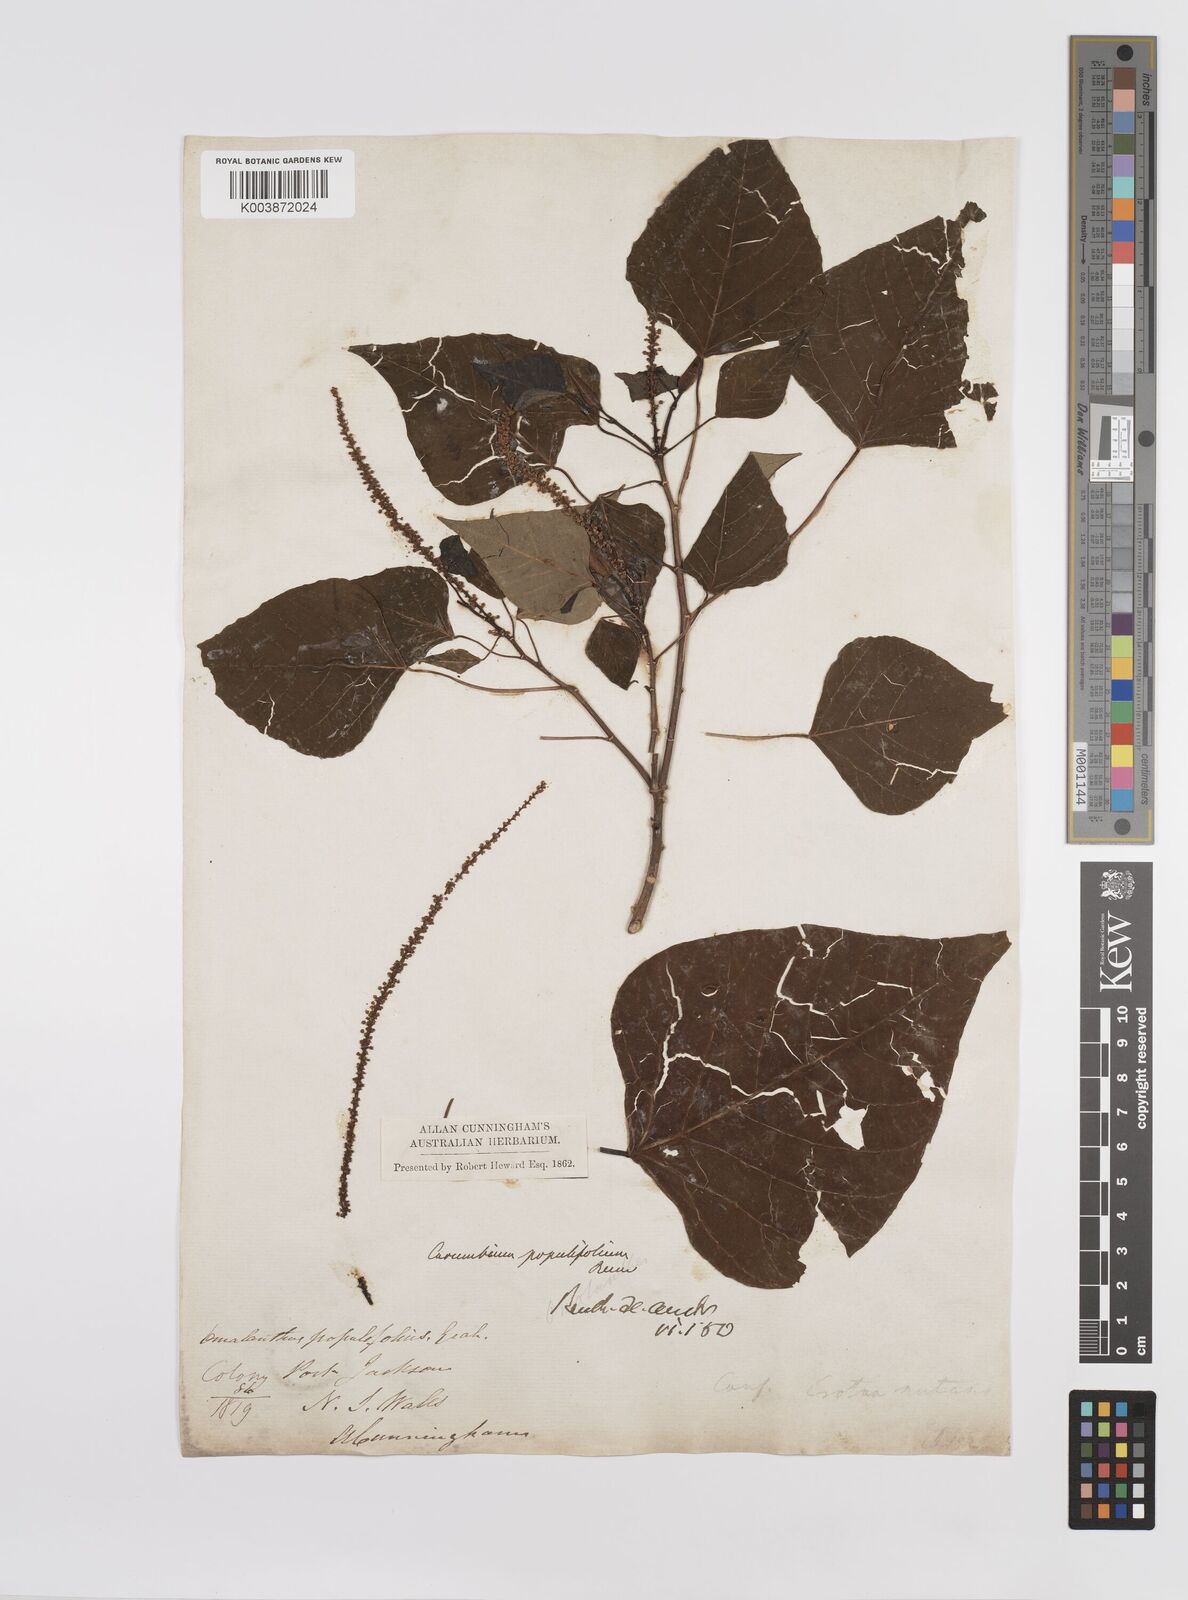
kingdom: Plantae
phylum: Tracheophyta
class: Magnoliopsida
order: Malpighiales
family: Euphorbiaceae
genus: Homalanthus
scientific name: Homalanthus populifolius
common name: Queensland poplar
